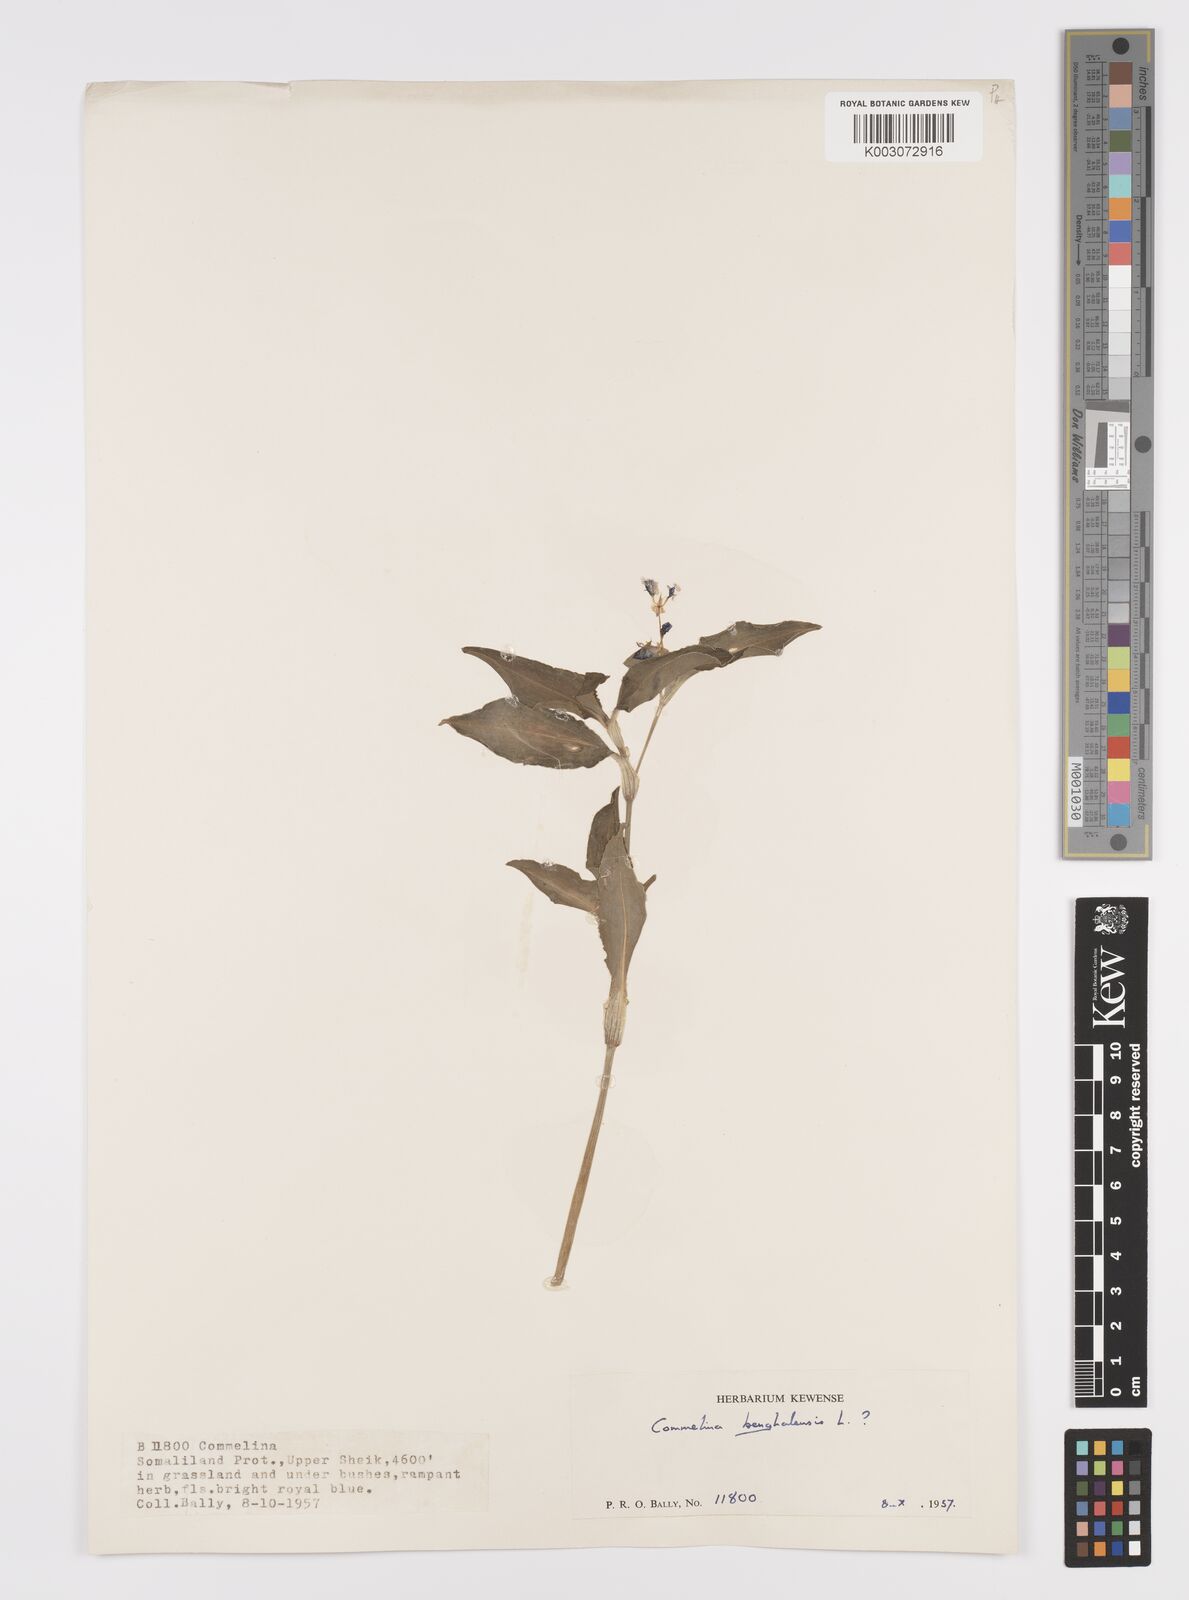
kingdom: Plantae
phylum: Tracheophyta
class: Liliopsida
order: Commelinales
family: Commelinaceae
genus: Commelina
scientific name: Commelina benghalensis
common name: Jio
